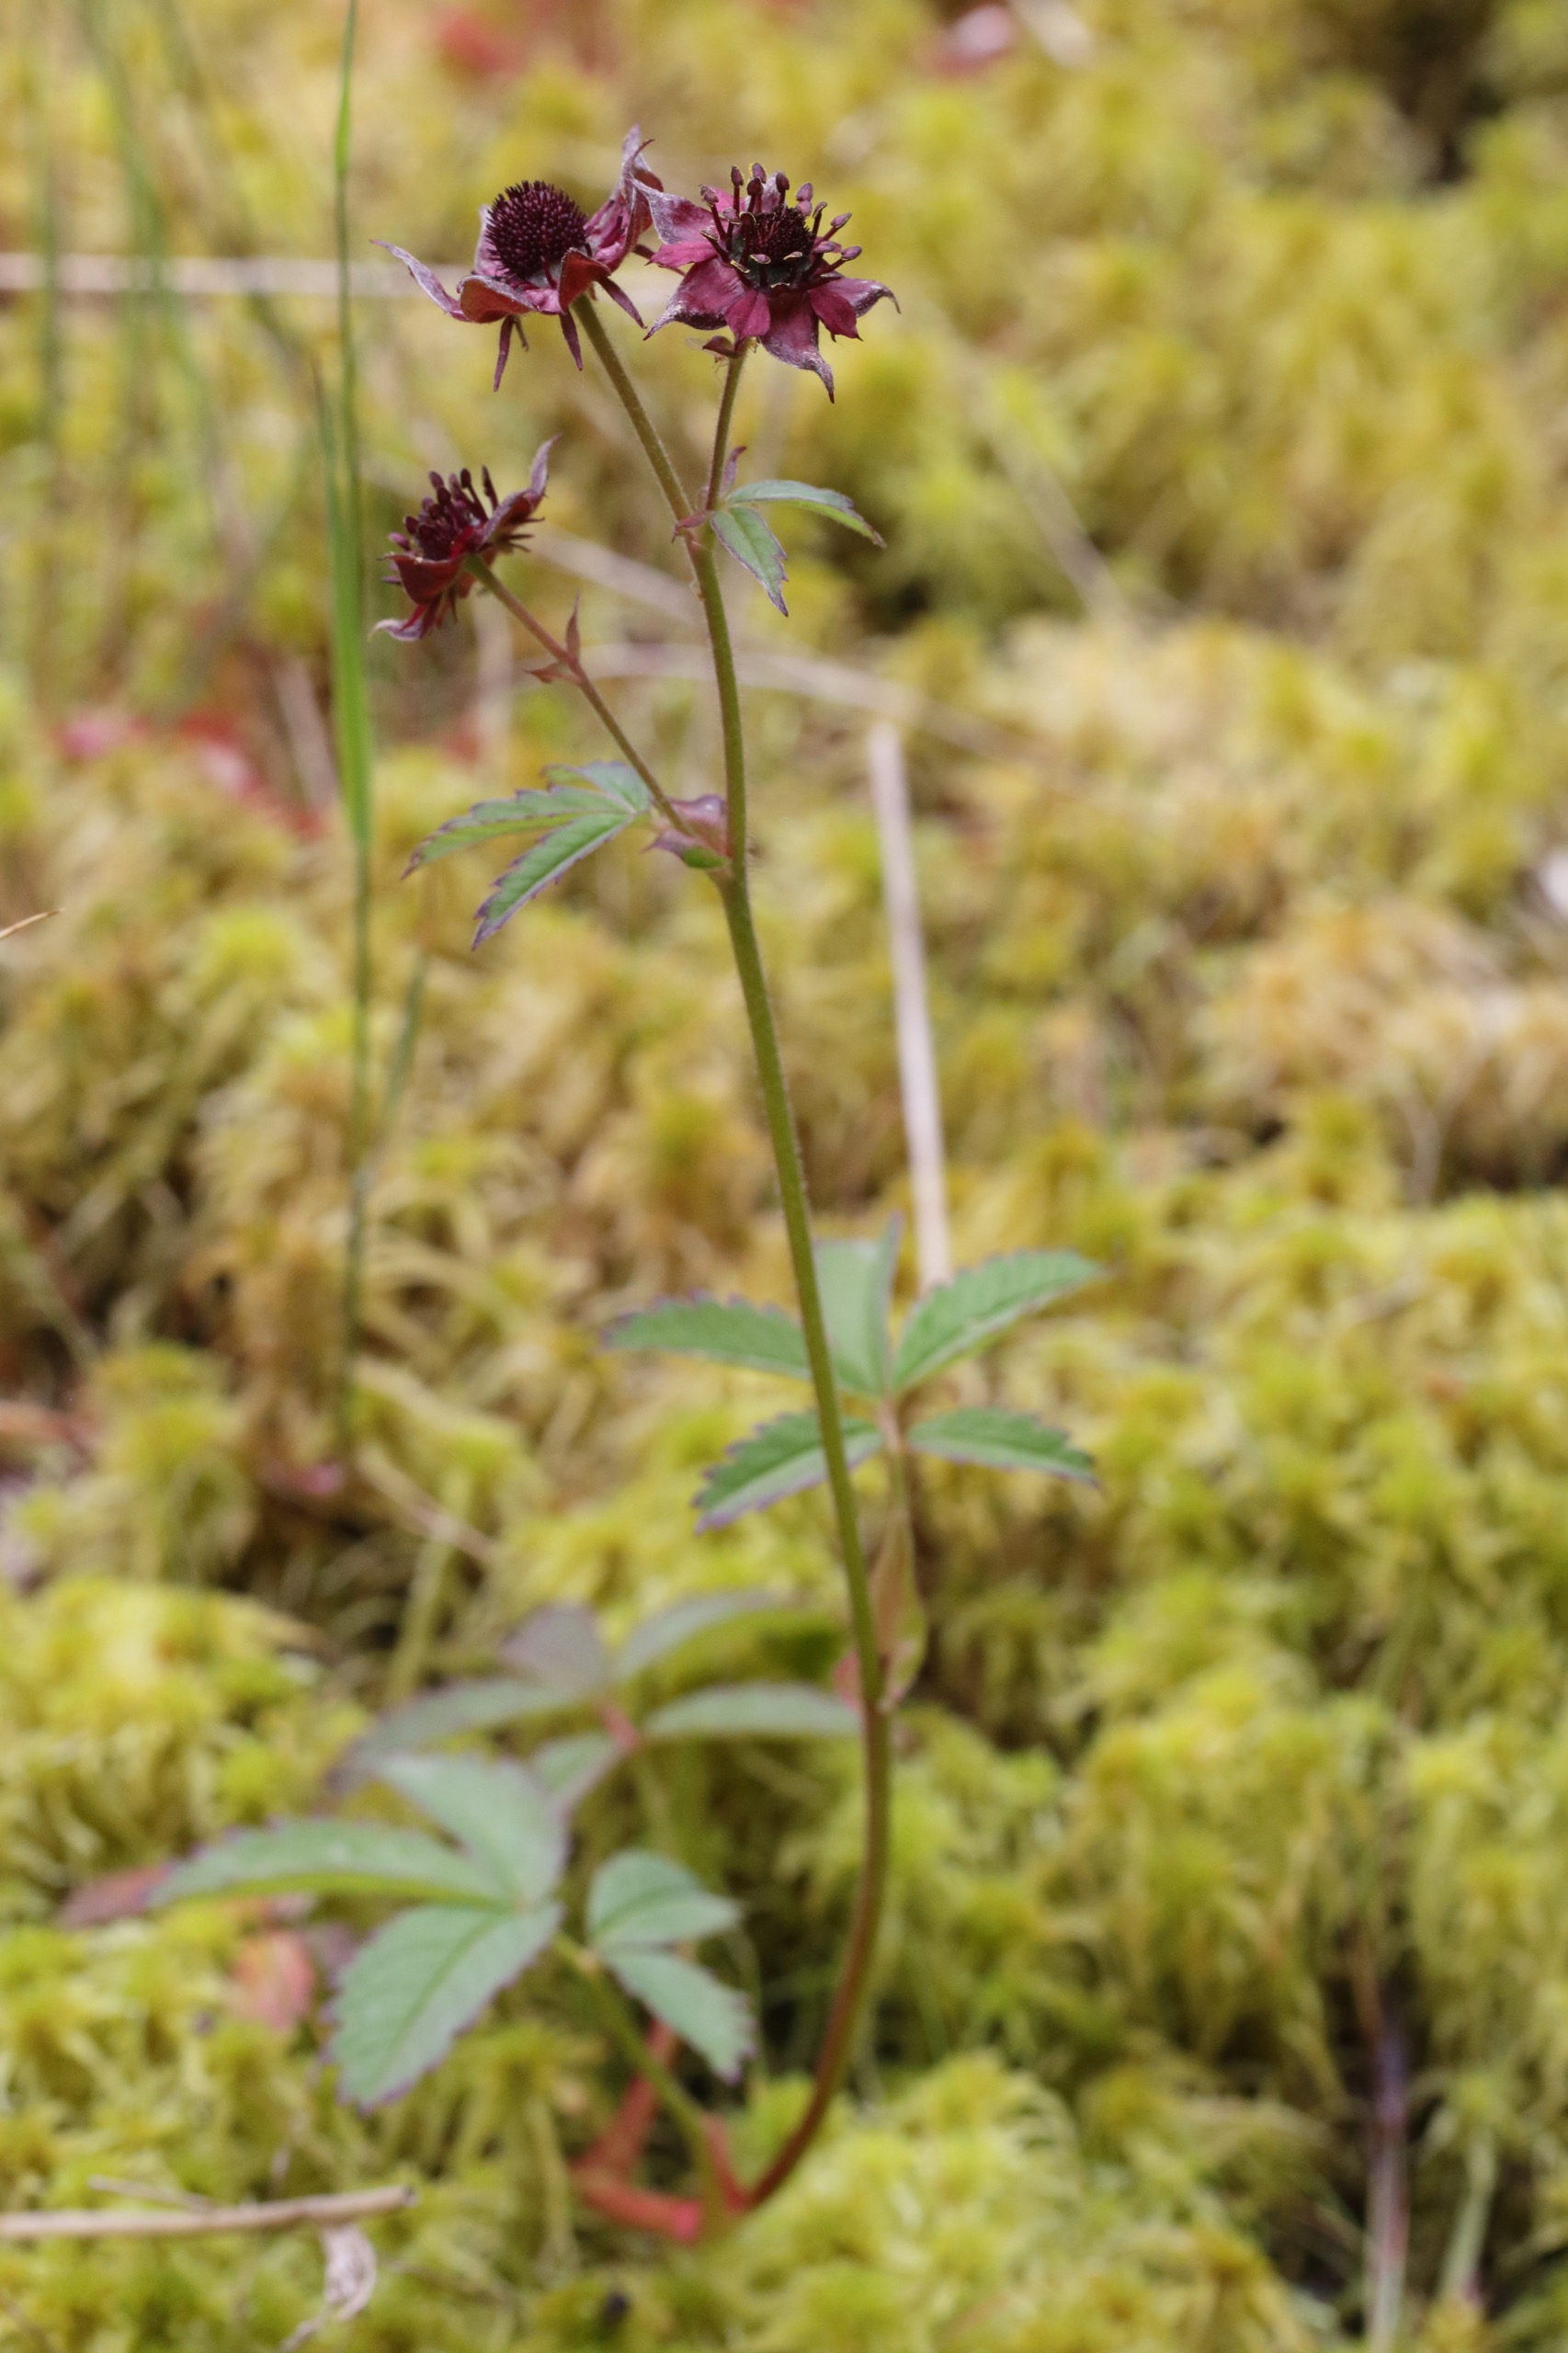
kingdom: Plantae
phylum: Tracheophyta
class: Magnoliopsida
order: Rosales
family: Rosaceae
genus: Comarum
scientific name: Comarum palustre
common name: Kragefod
